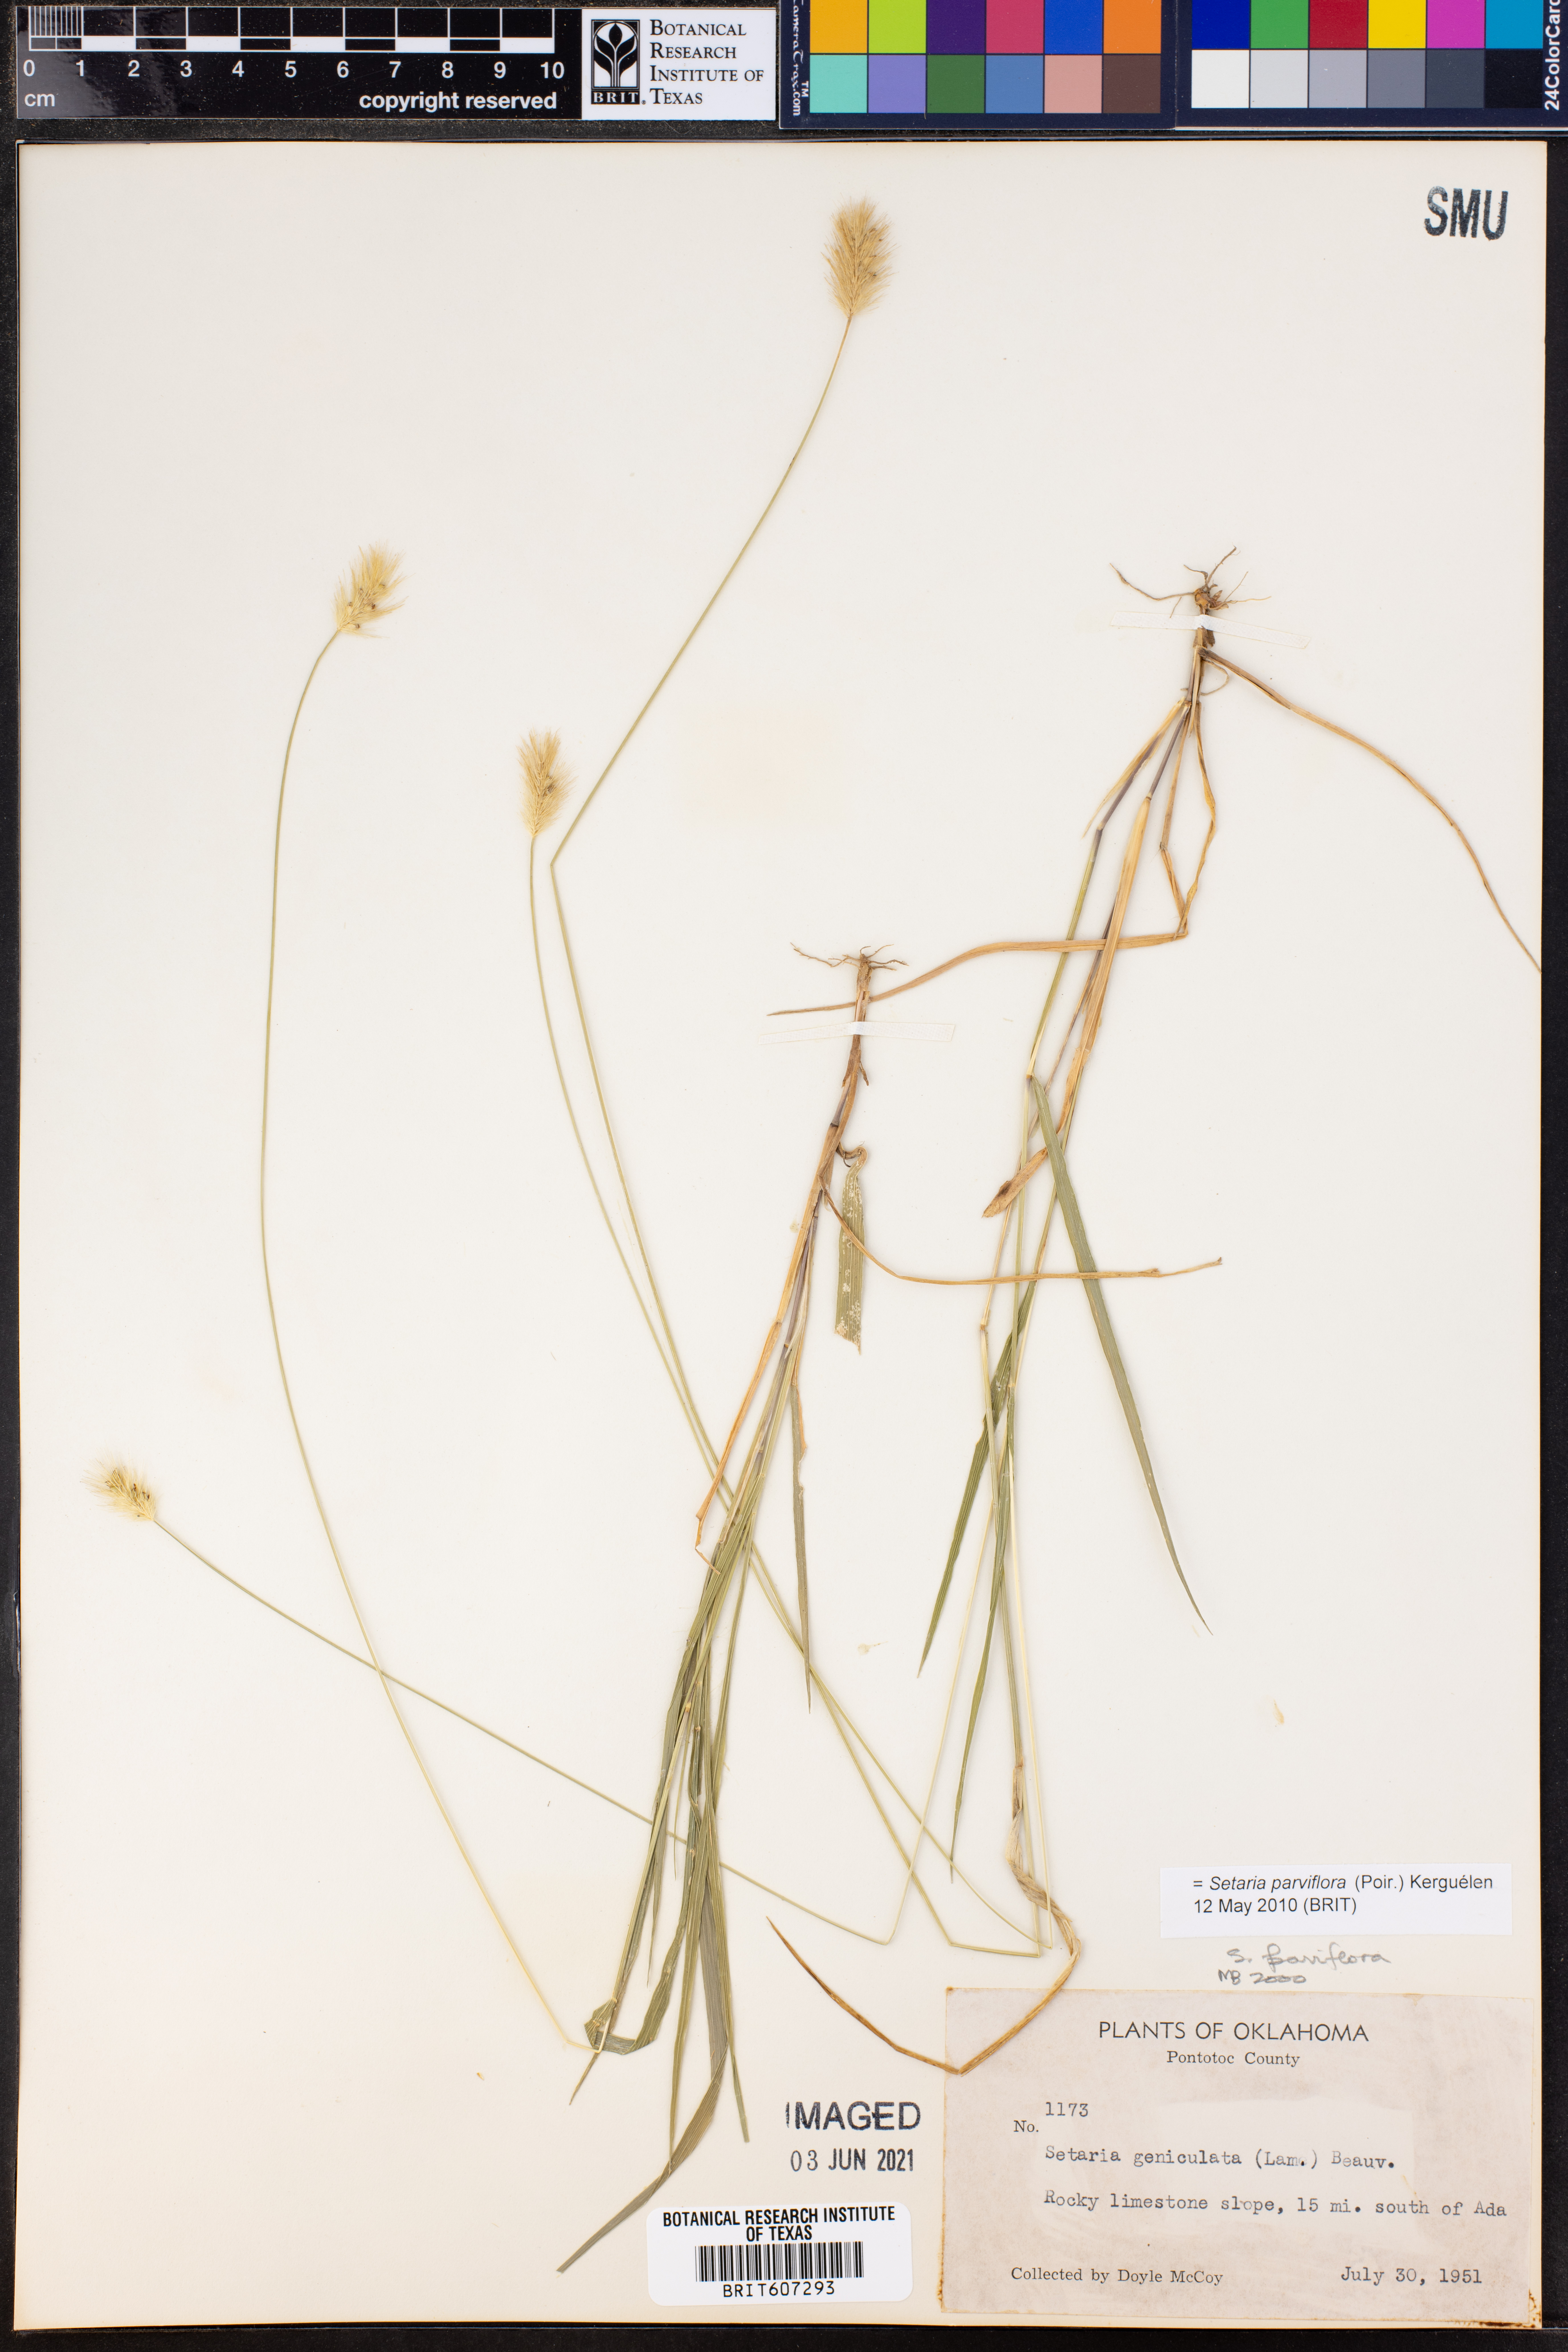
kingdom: Plantae
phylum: Tracheophyta
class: Liliopsida
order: Poales
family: Poaceae
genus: Setaria
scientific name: Setaria parviflora
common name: Knotroot bristle-grass
